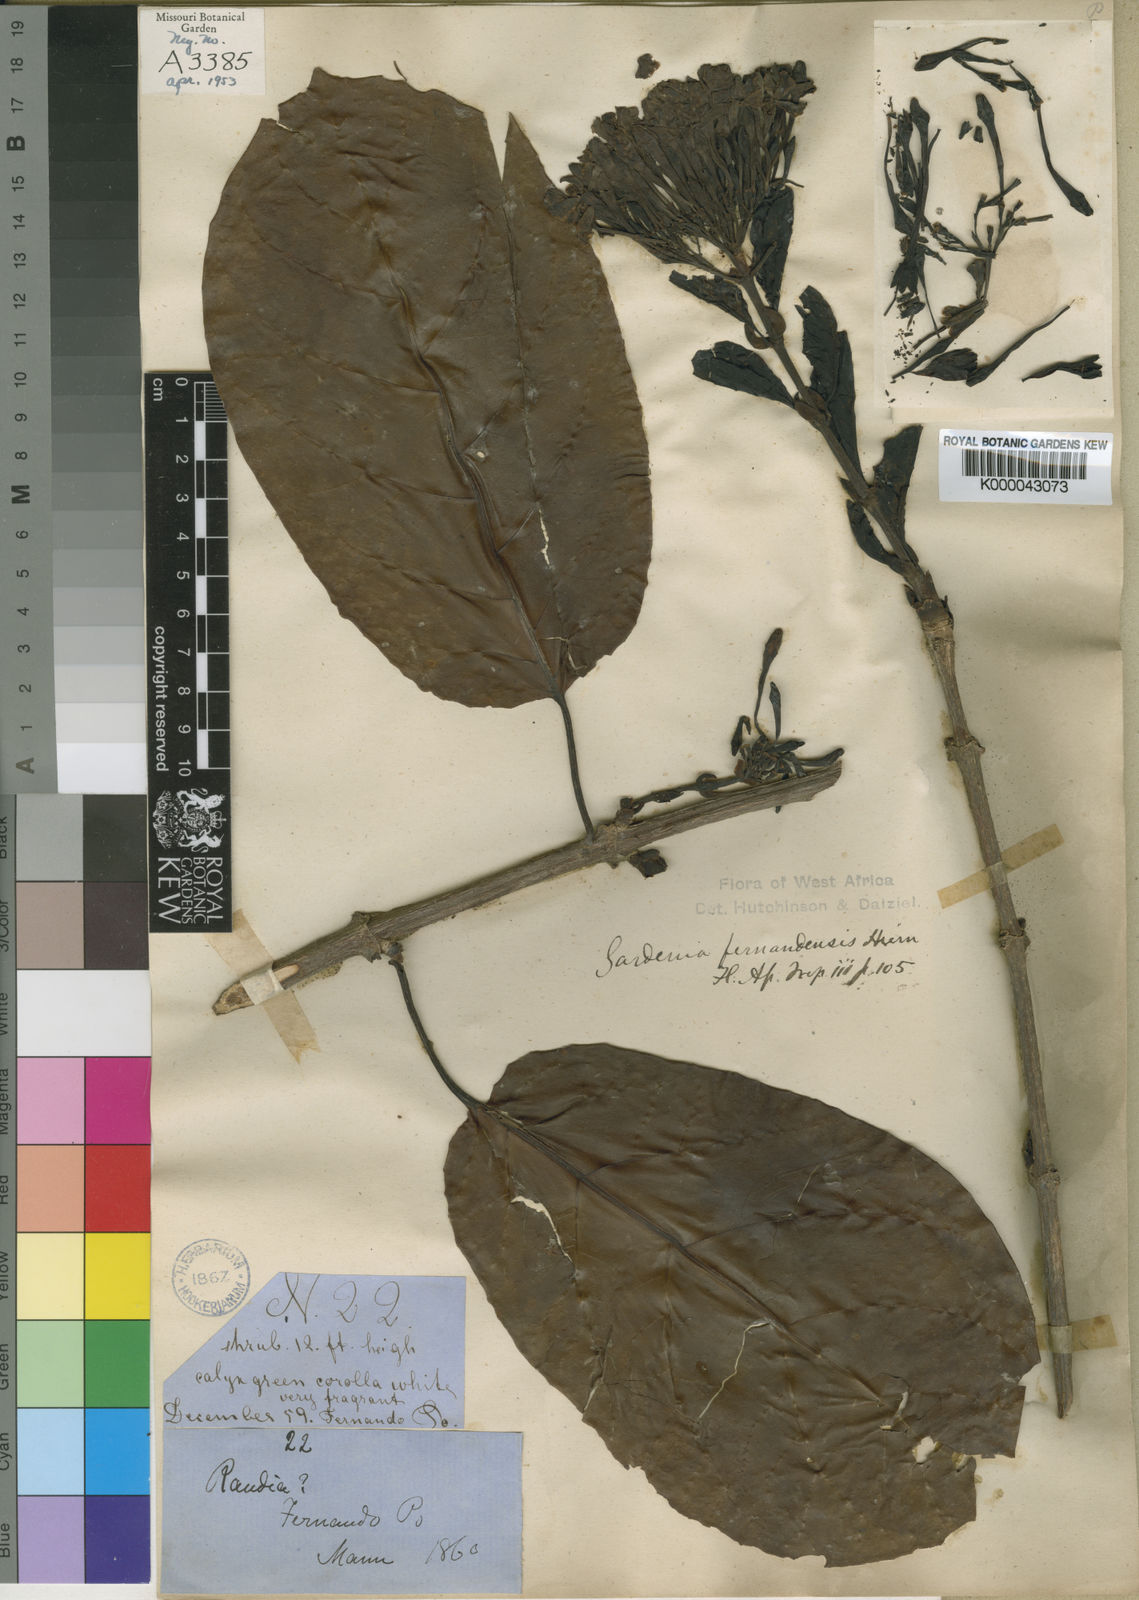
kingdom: Plantae
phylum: Tracheophyta
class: Magnoliopsida
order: Gentianales
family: Rubiaceae
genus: Pleiocoryne
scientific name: Pleiocoryne fernandensis
